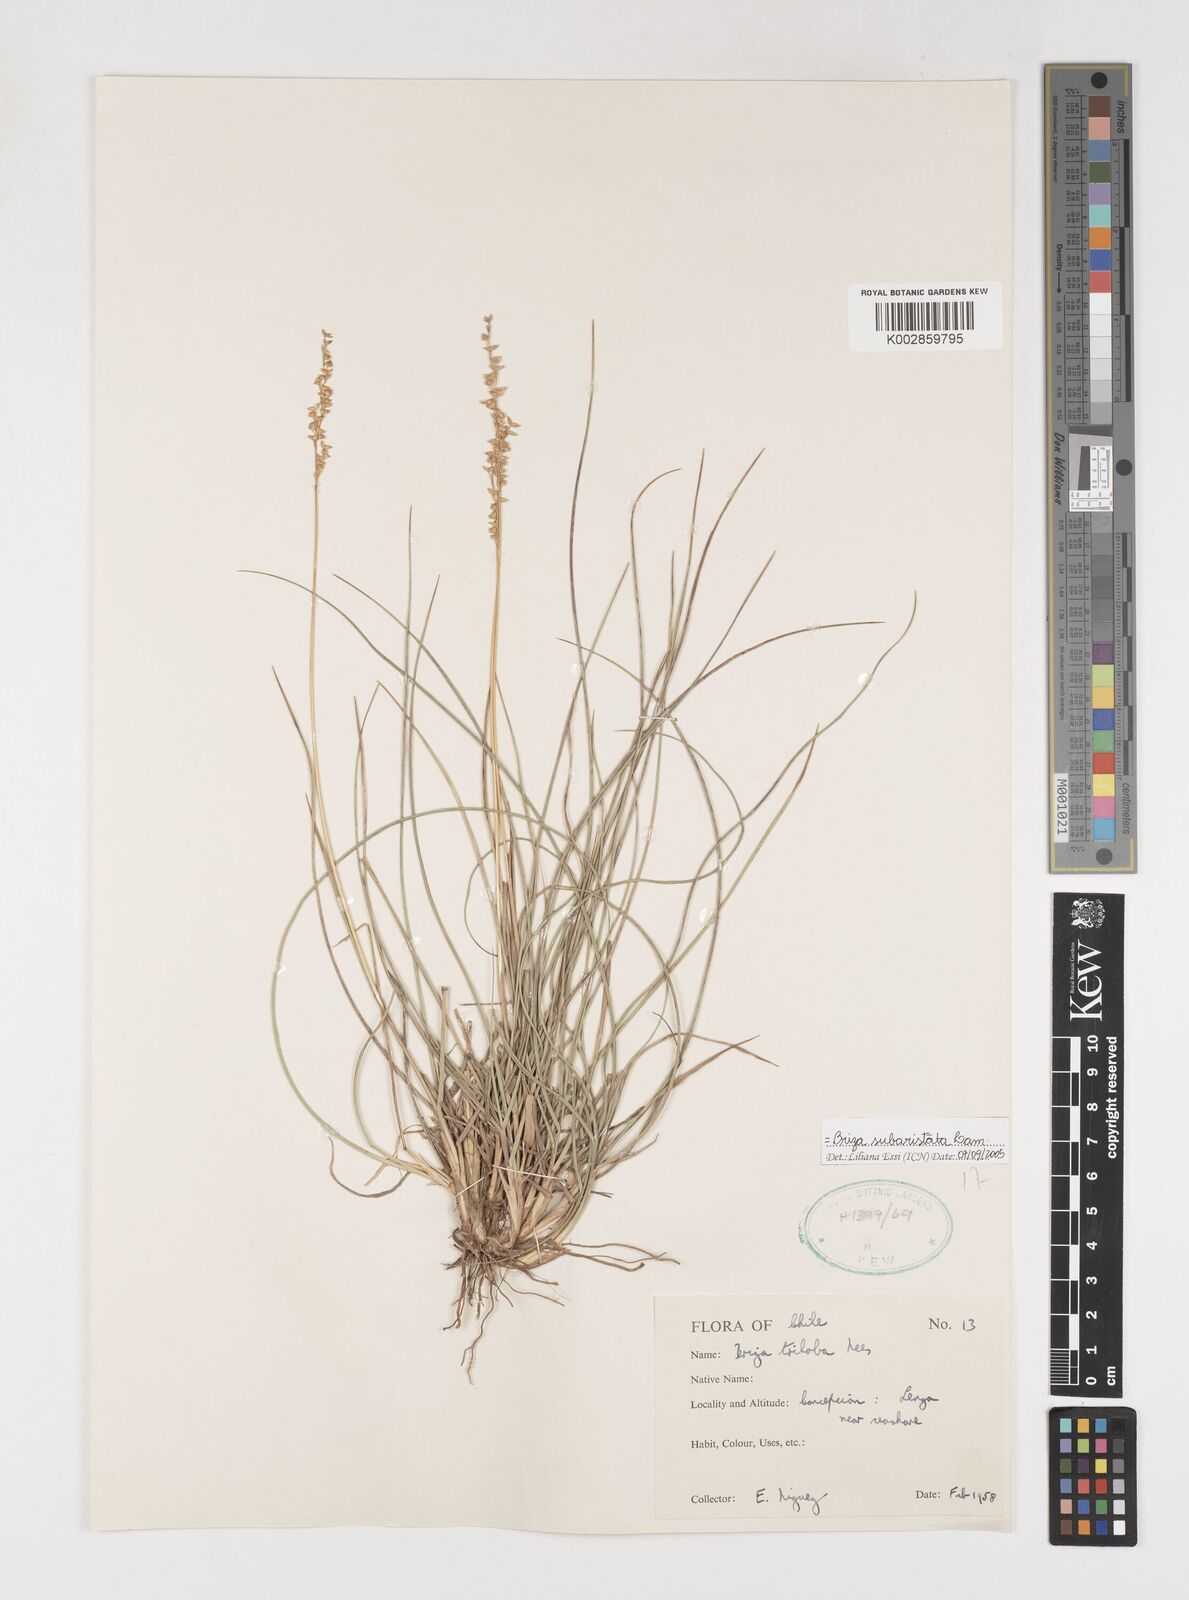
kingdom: Plantae
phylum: Tracheophyta
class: Liliopsida
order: Poales
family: Poaceae
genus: Chascolytrum
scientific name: Chascolytrum subaristatum
